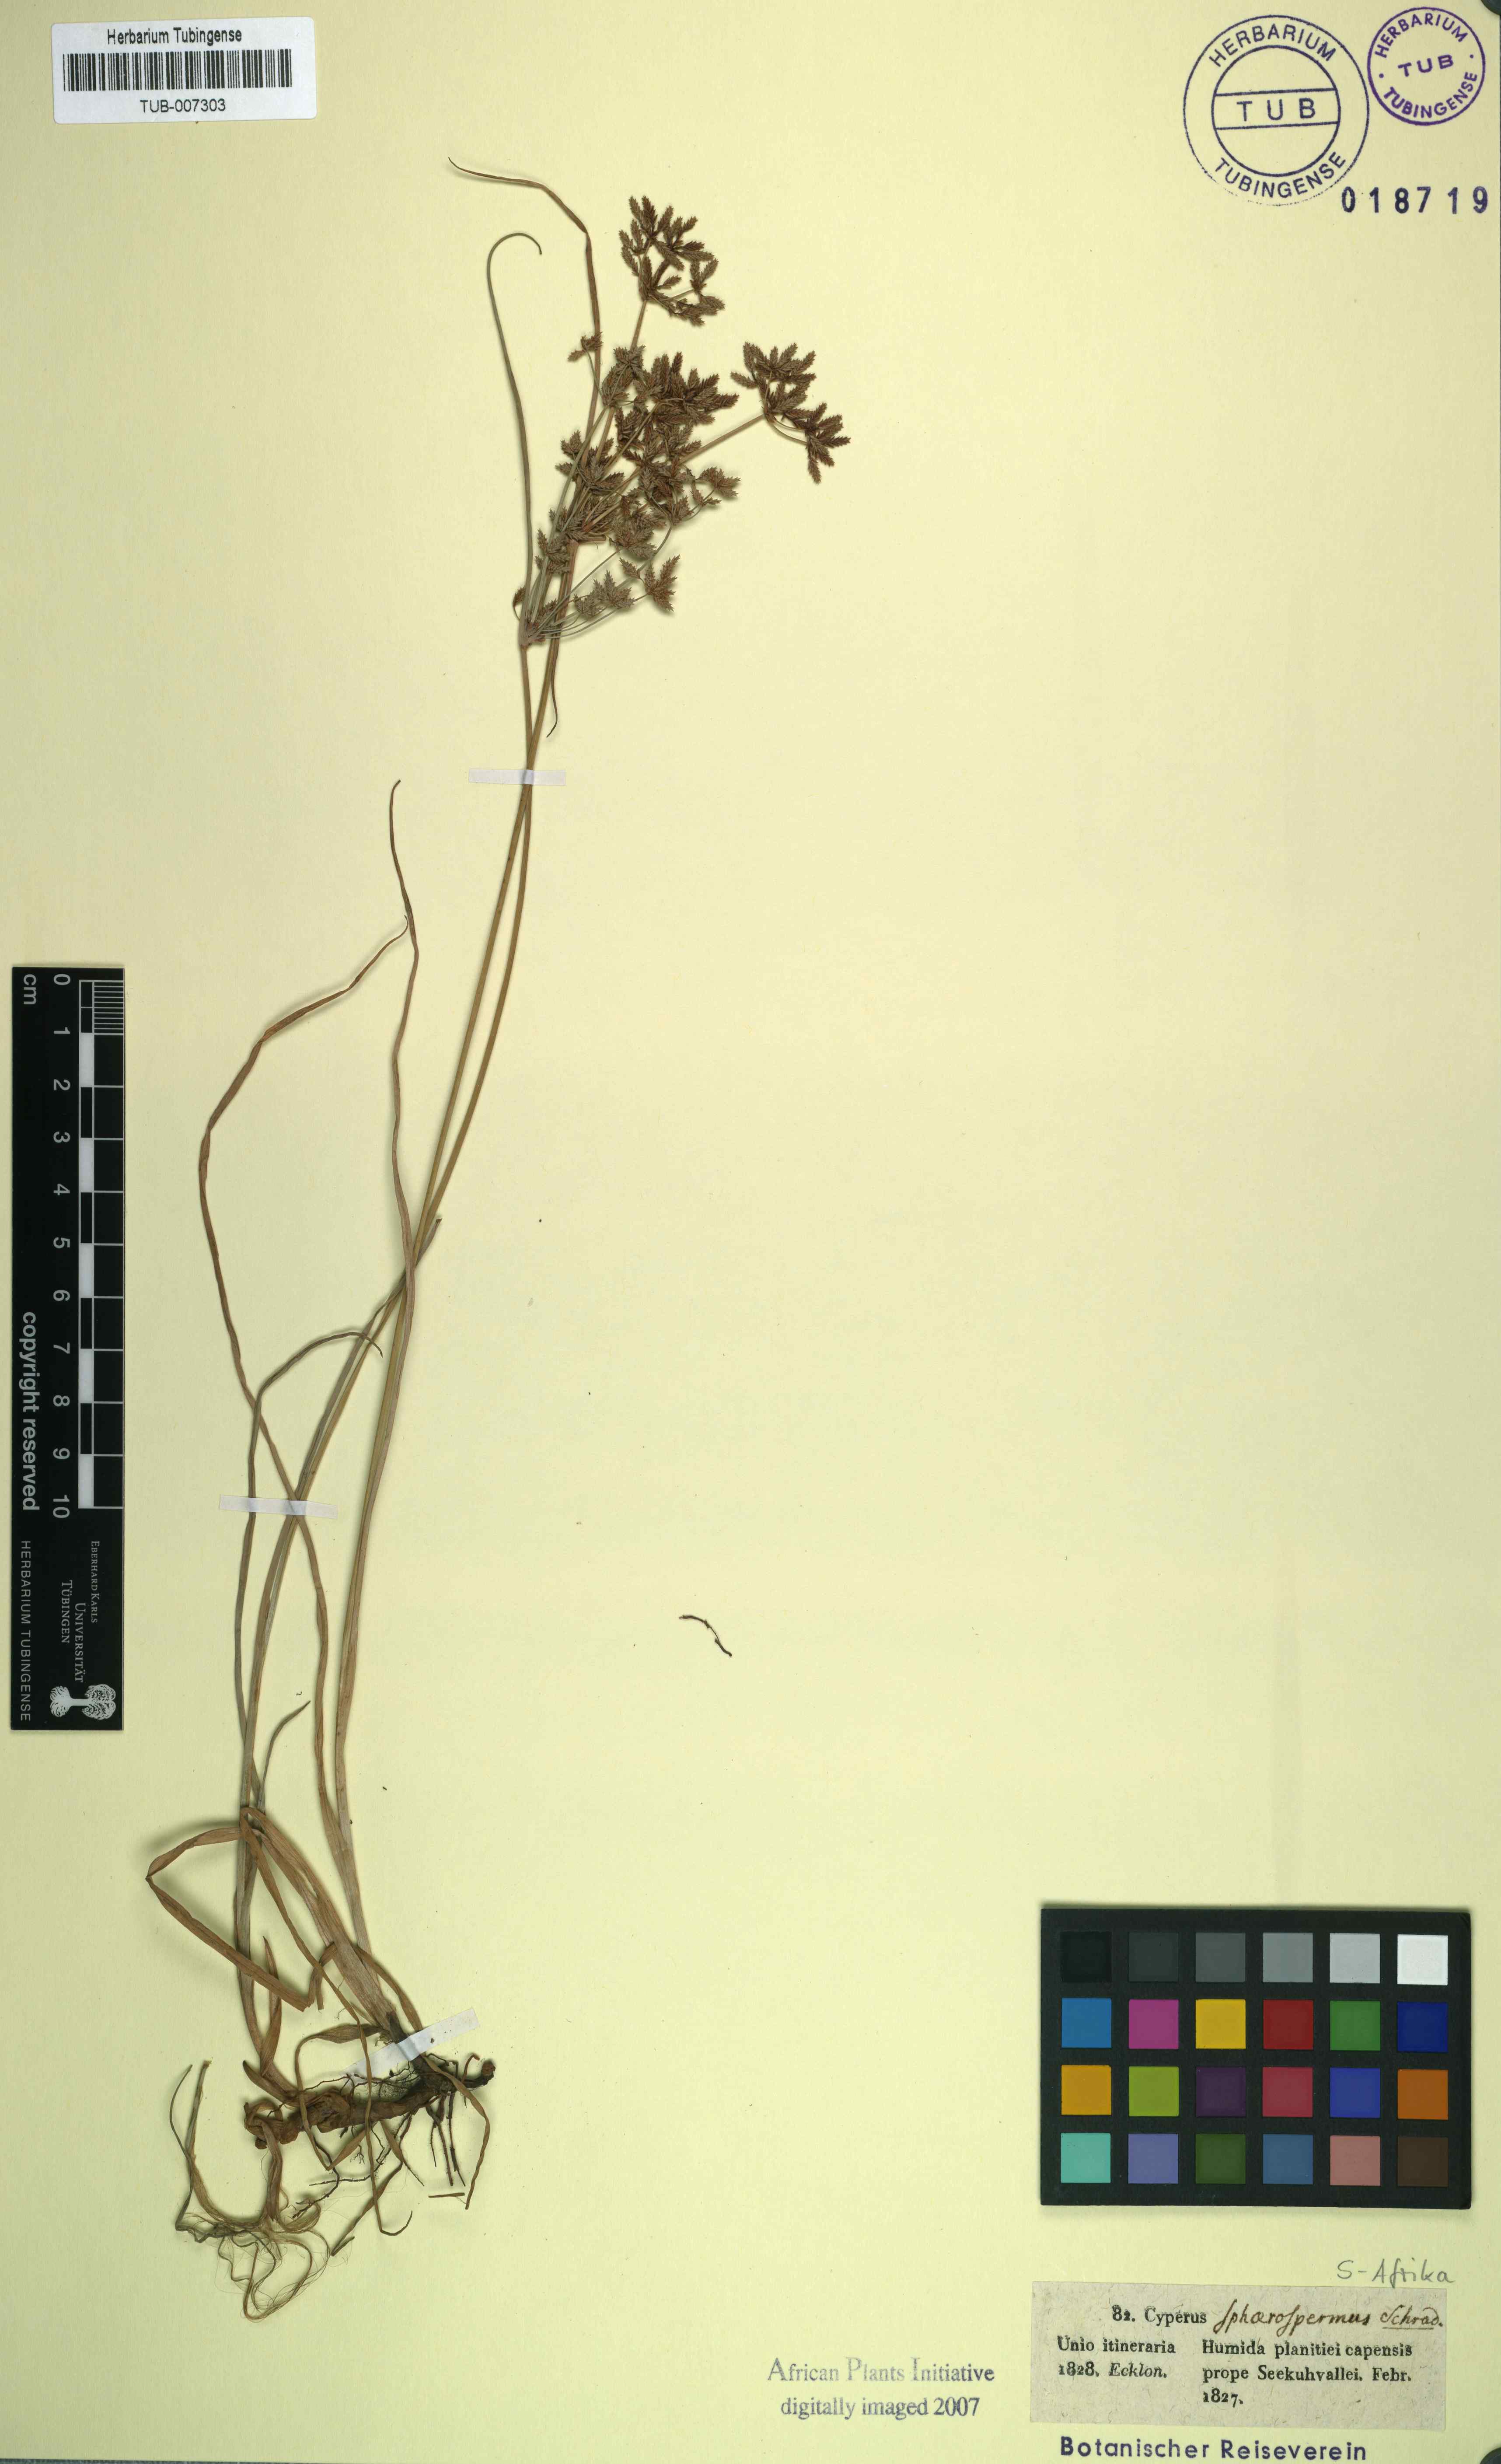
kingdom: Plantae
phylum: Tracheophyta
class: Liliopsida
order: Poales
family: Cyperaceae
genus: Cyperus
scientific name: Cyperus sphaerospermus
